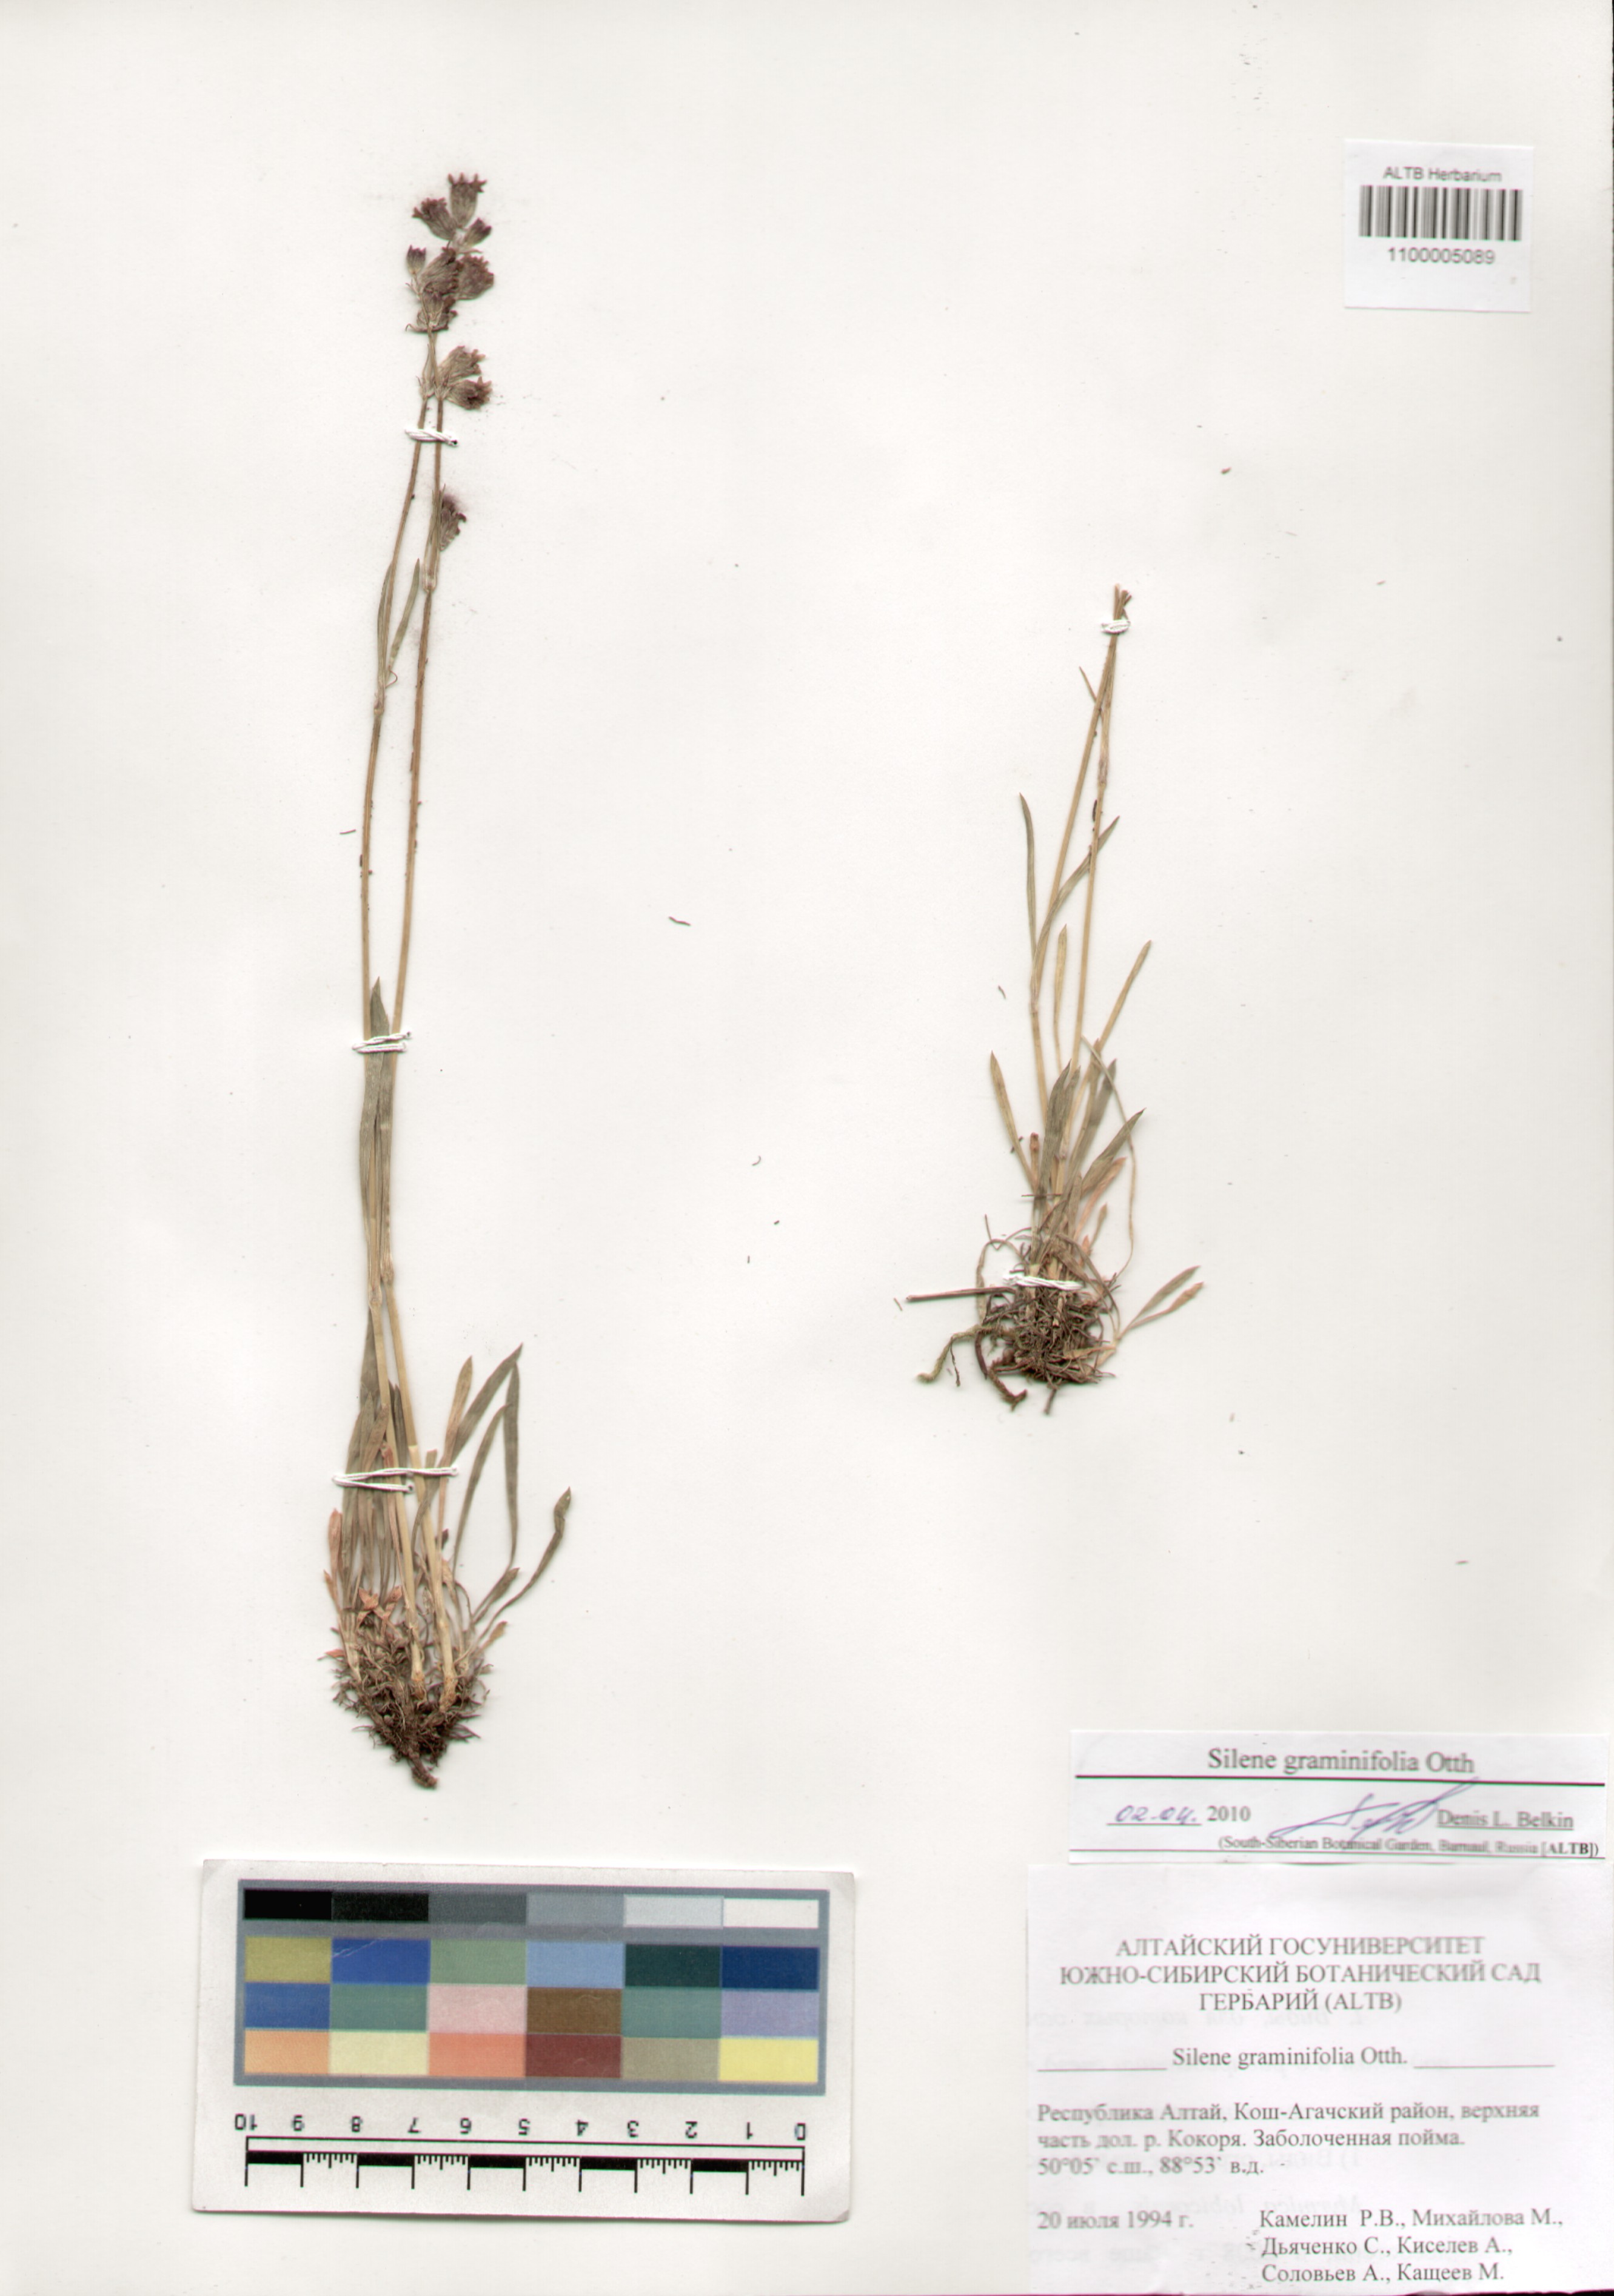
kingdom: Plantae
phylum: Tracheophyta
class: Magnoliopsida
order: Caryophyllales
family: Caryophyllaceae
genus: Silene
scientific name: Silene graminifolia
